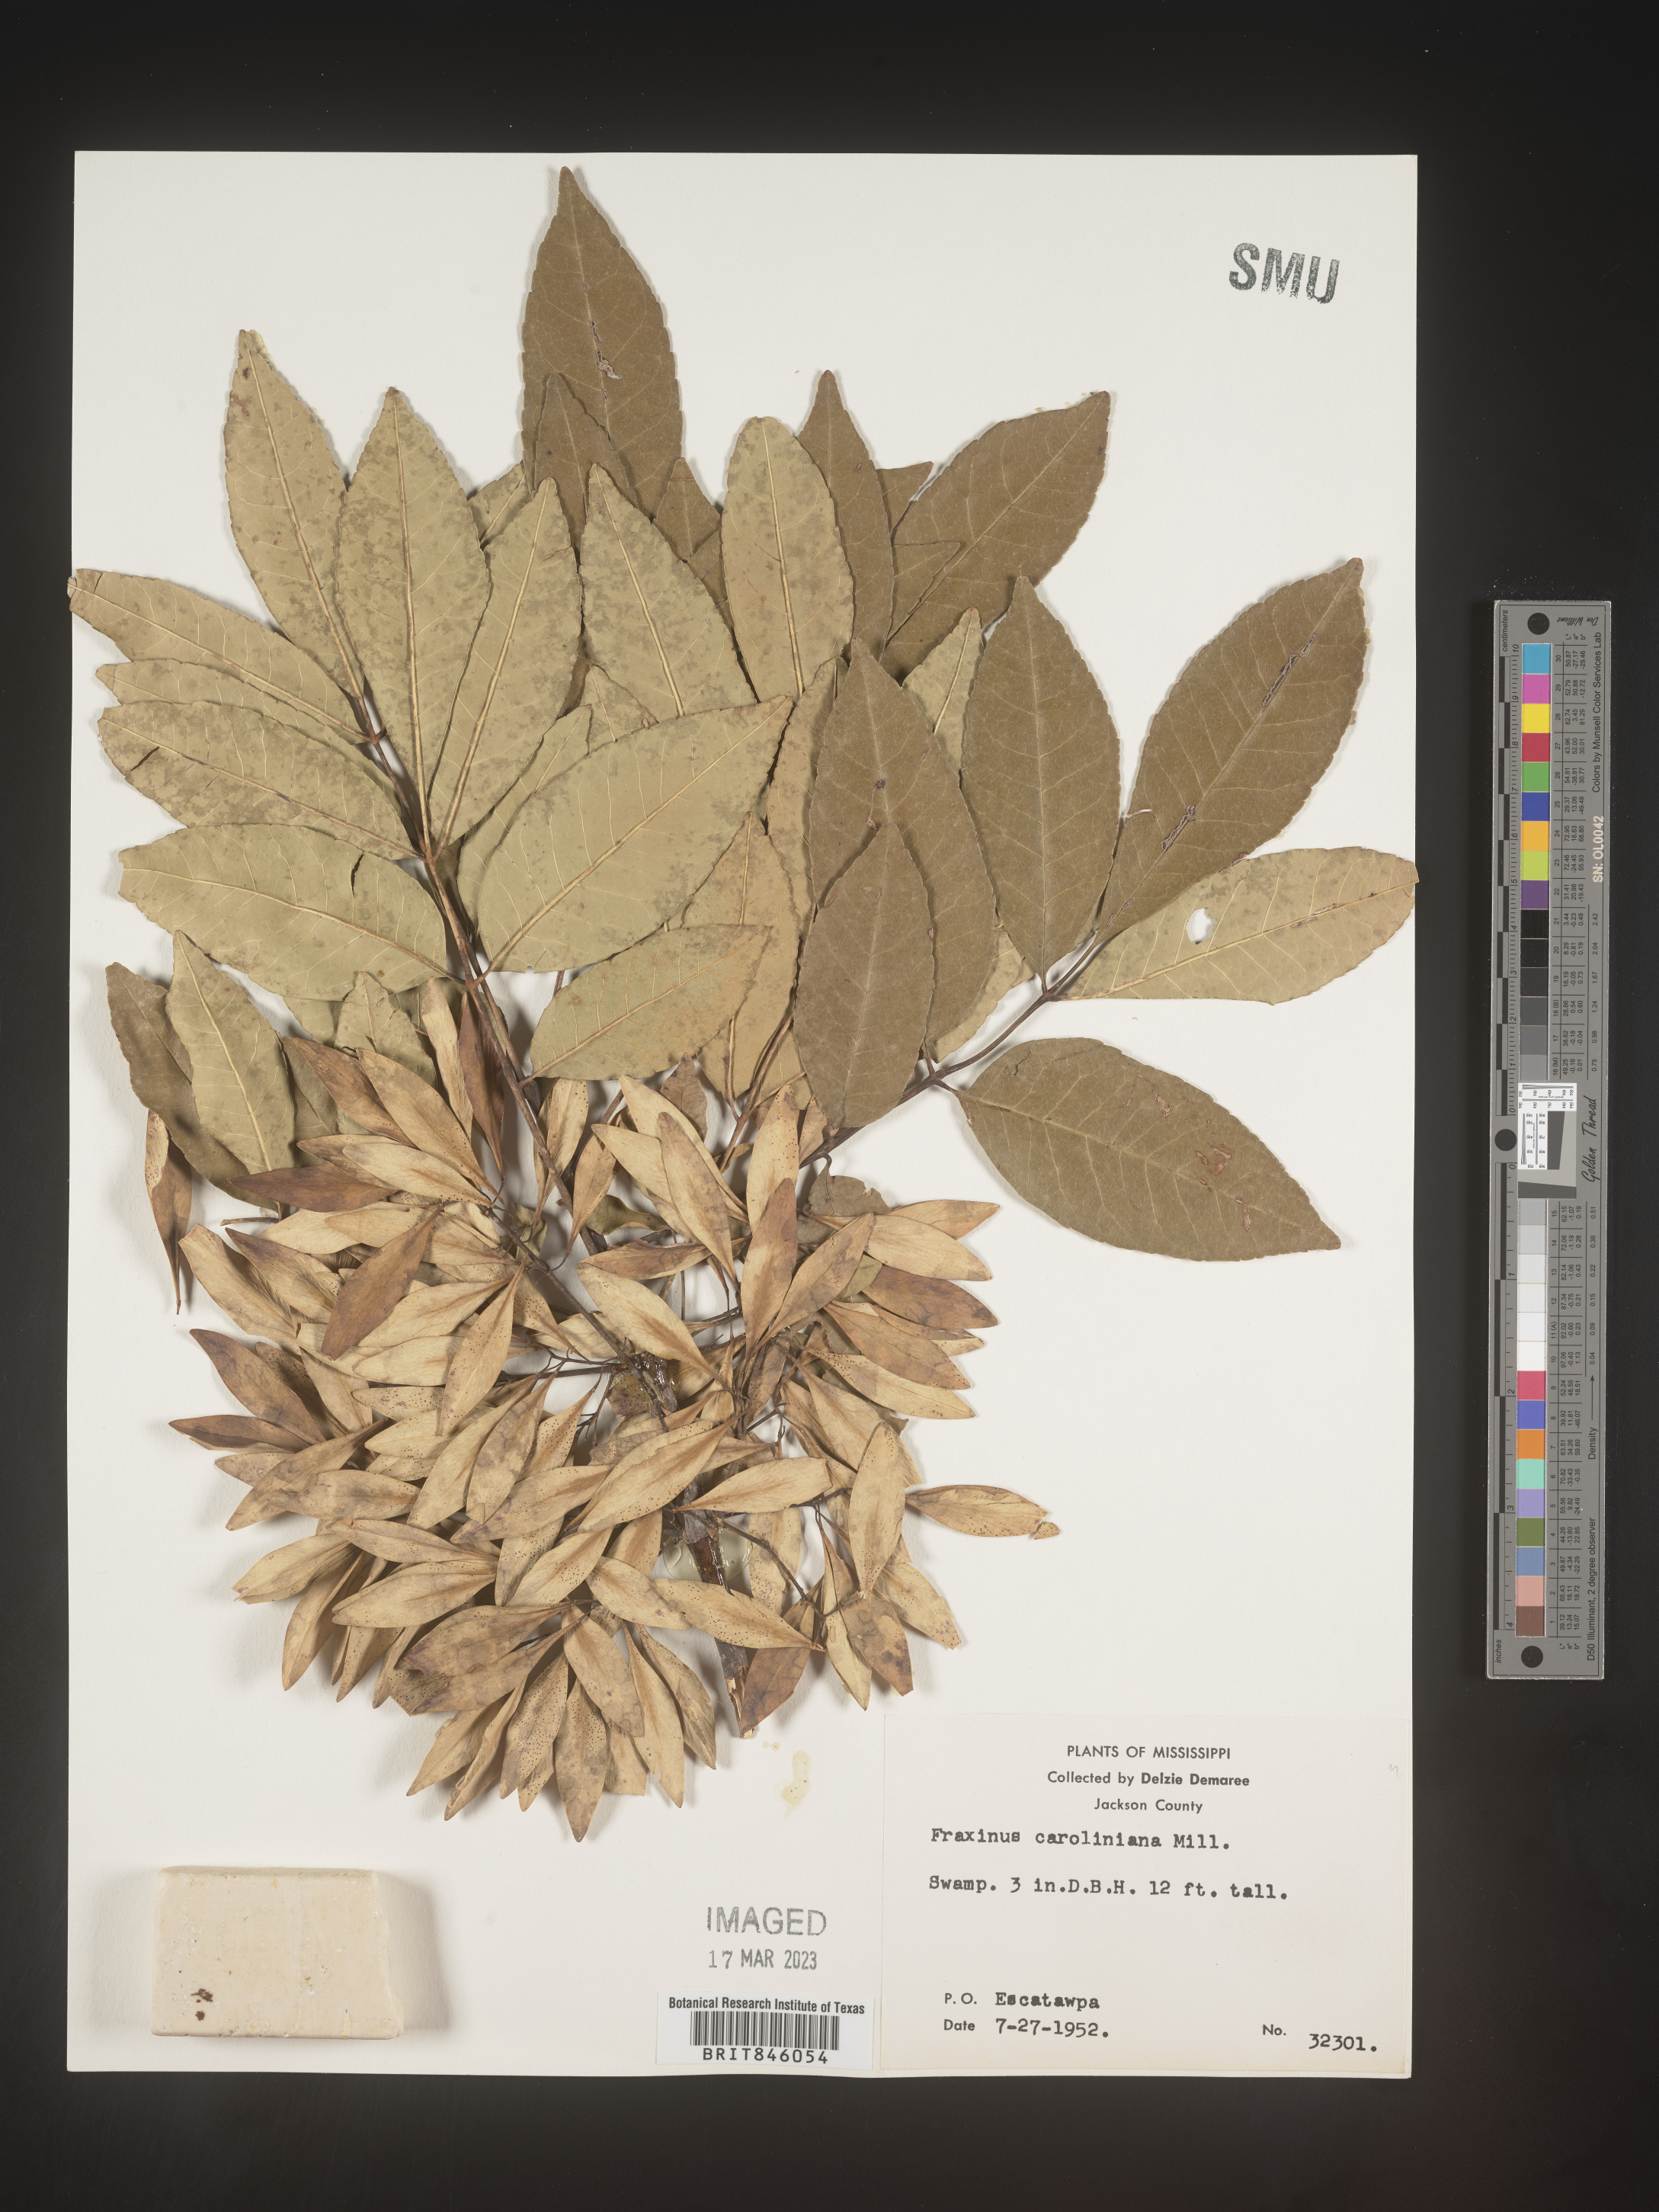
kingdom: Plantae
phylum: Tracheophyta
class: Magnoliopsida
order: Lamiales
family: Oleaceae
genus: Fraxinus
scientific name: Fraxinus caroliniana
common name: Carolina ash
